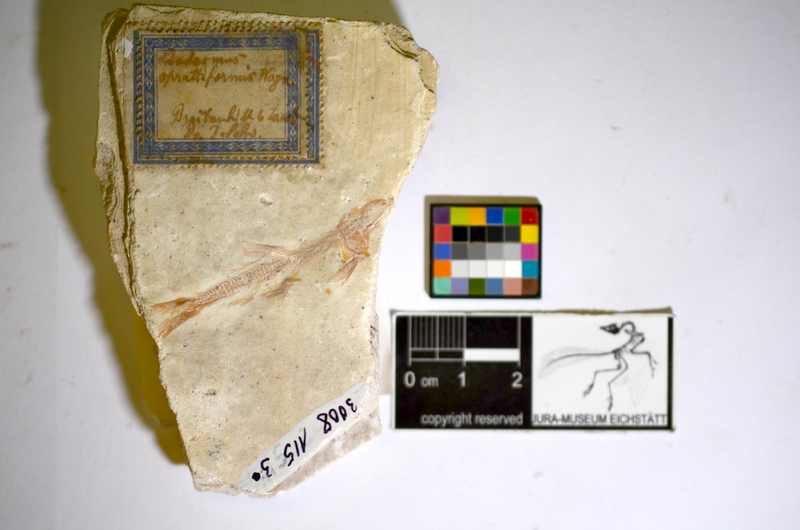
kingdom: Animalia
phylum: Chordata
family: Ascalaboidae
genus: Tharsis
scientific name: Tharsis
